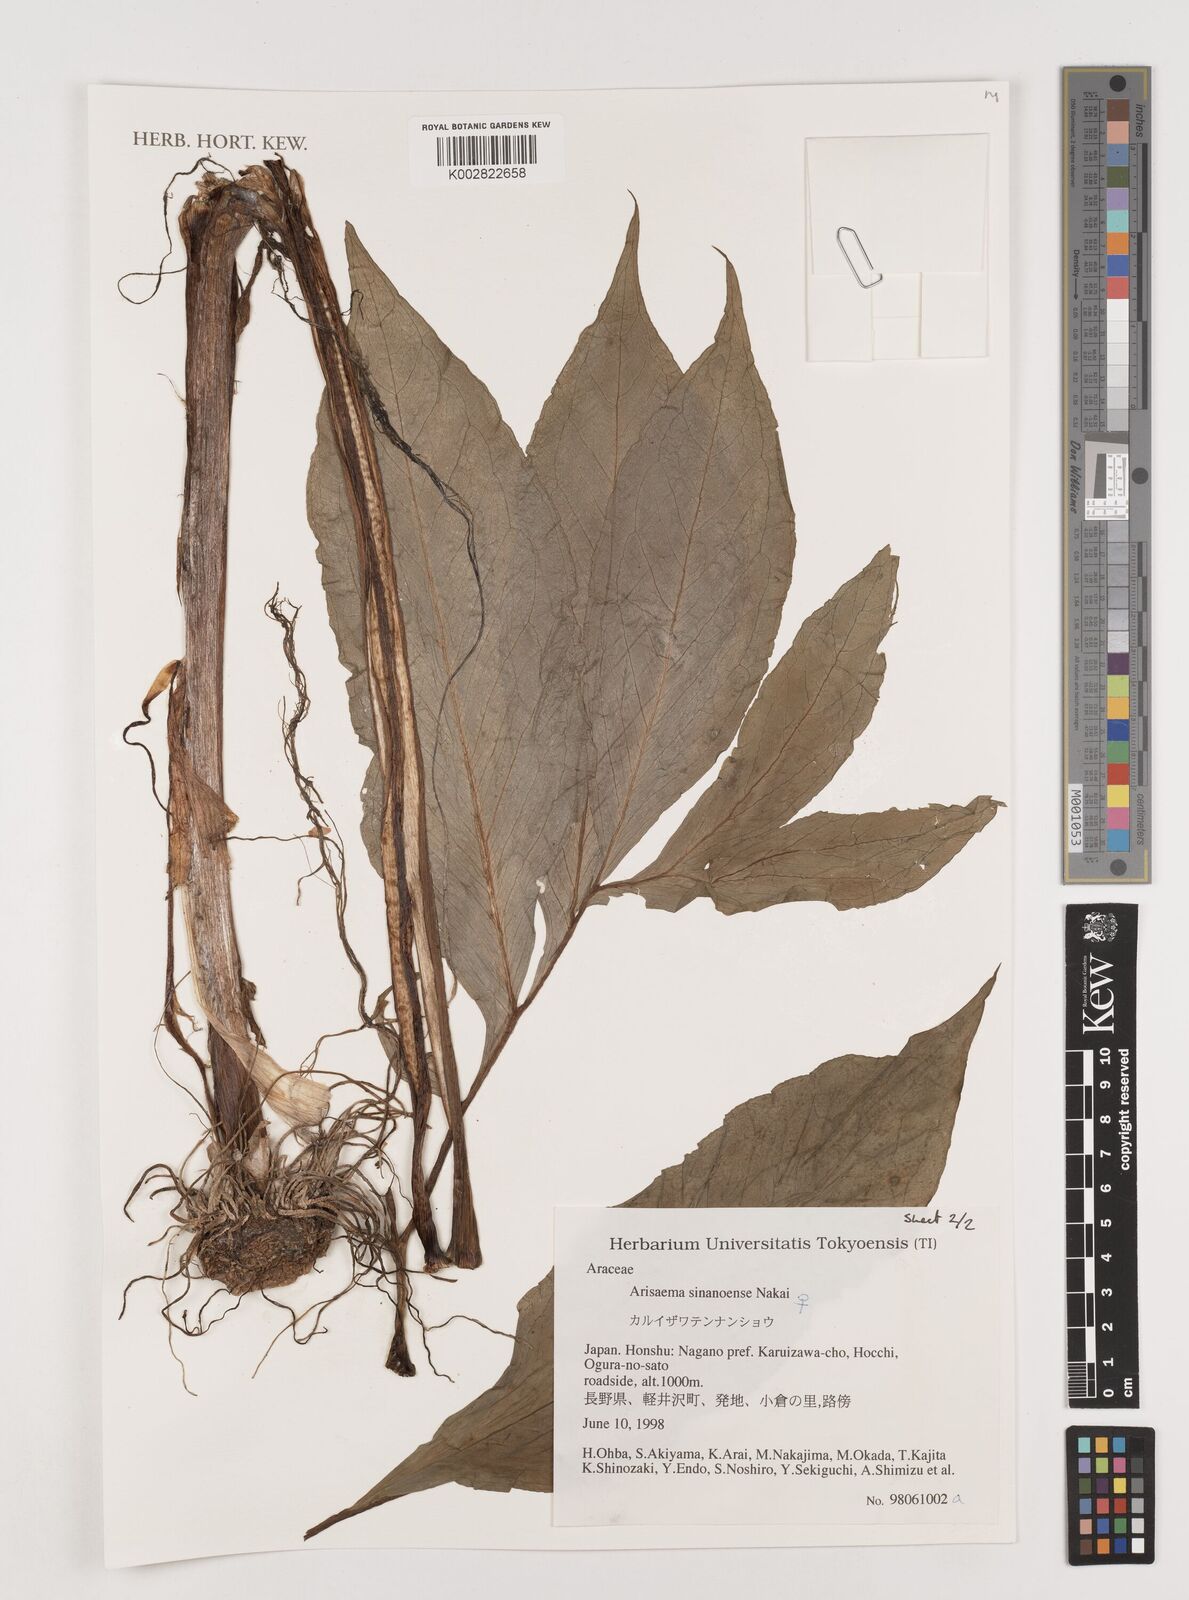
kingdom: Plantae
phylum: Tracheophyta
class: Liliopsida
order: Alismatales
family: Araceae
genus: Arisaema
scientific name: Arisaema serratum
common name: Japanese arisaema
